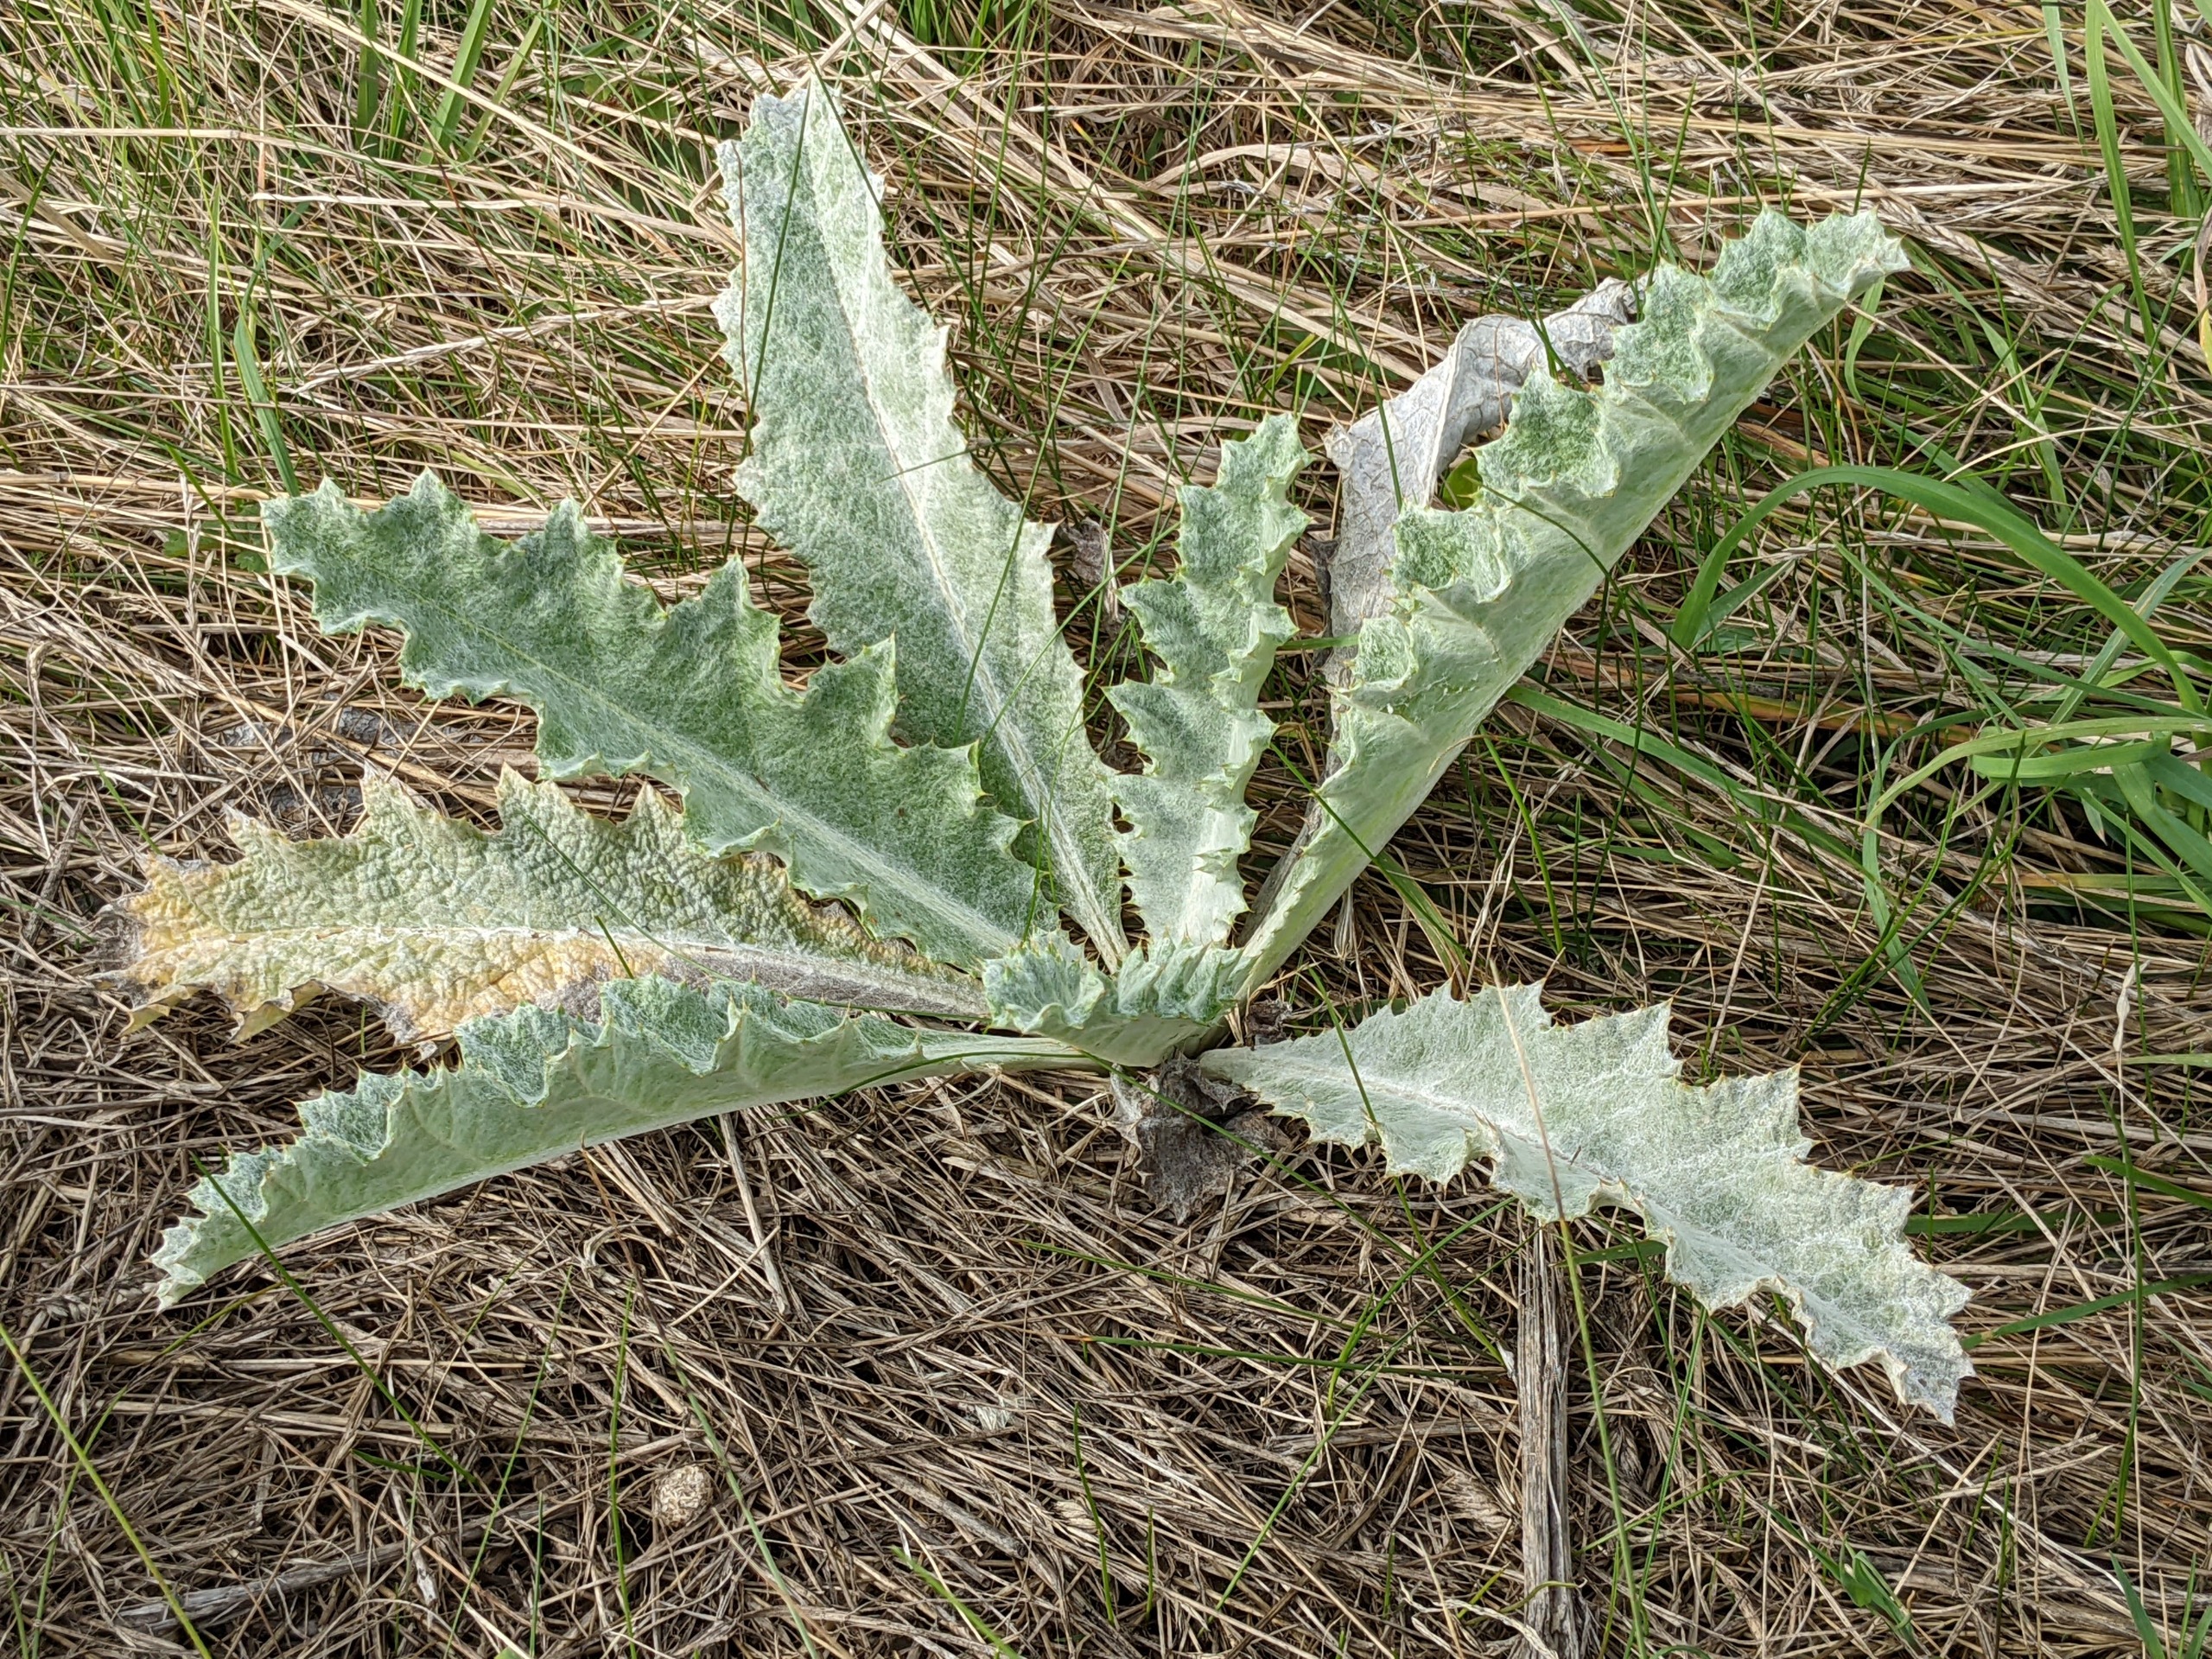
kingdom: Plantae
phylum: Tracheophyta
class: Magnoliopsida
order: Asterales
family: Asteraceae
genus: Onopordum
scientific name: Onopordum acanthium
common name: Æselfoder
